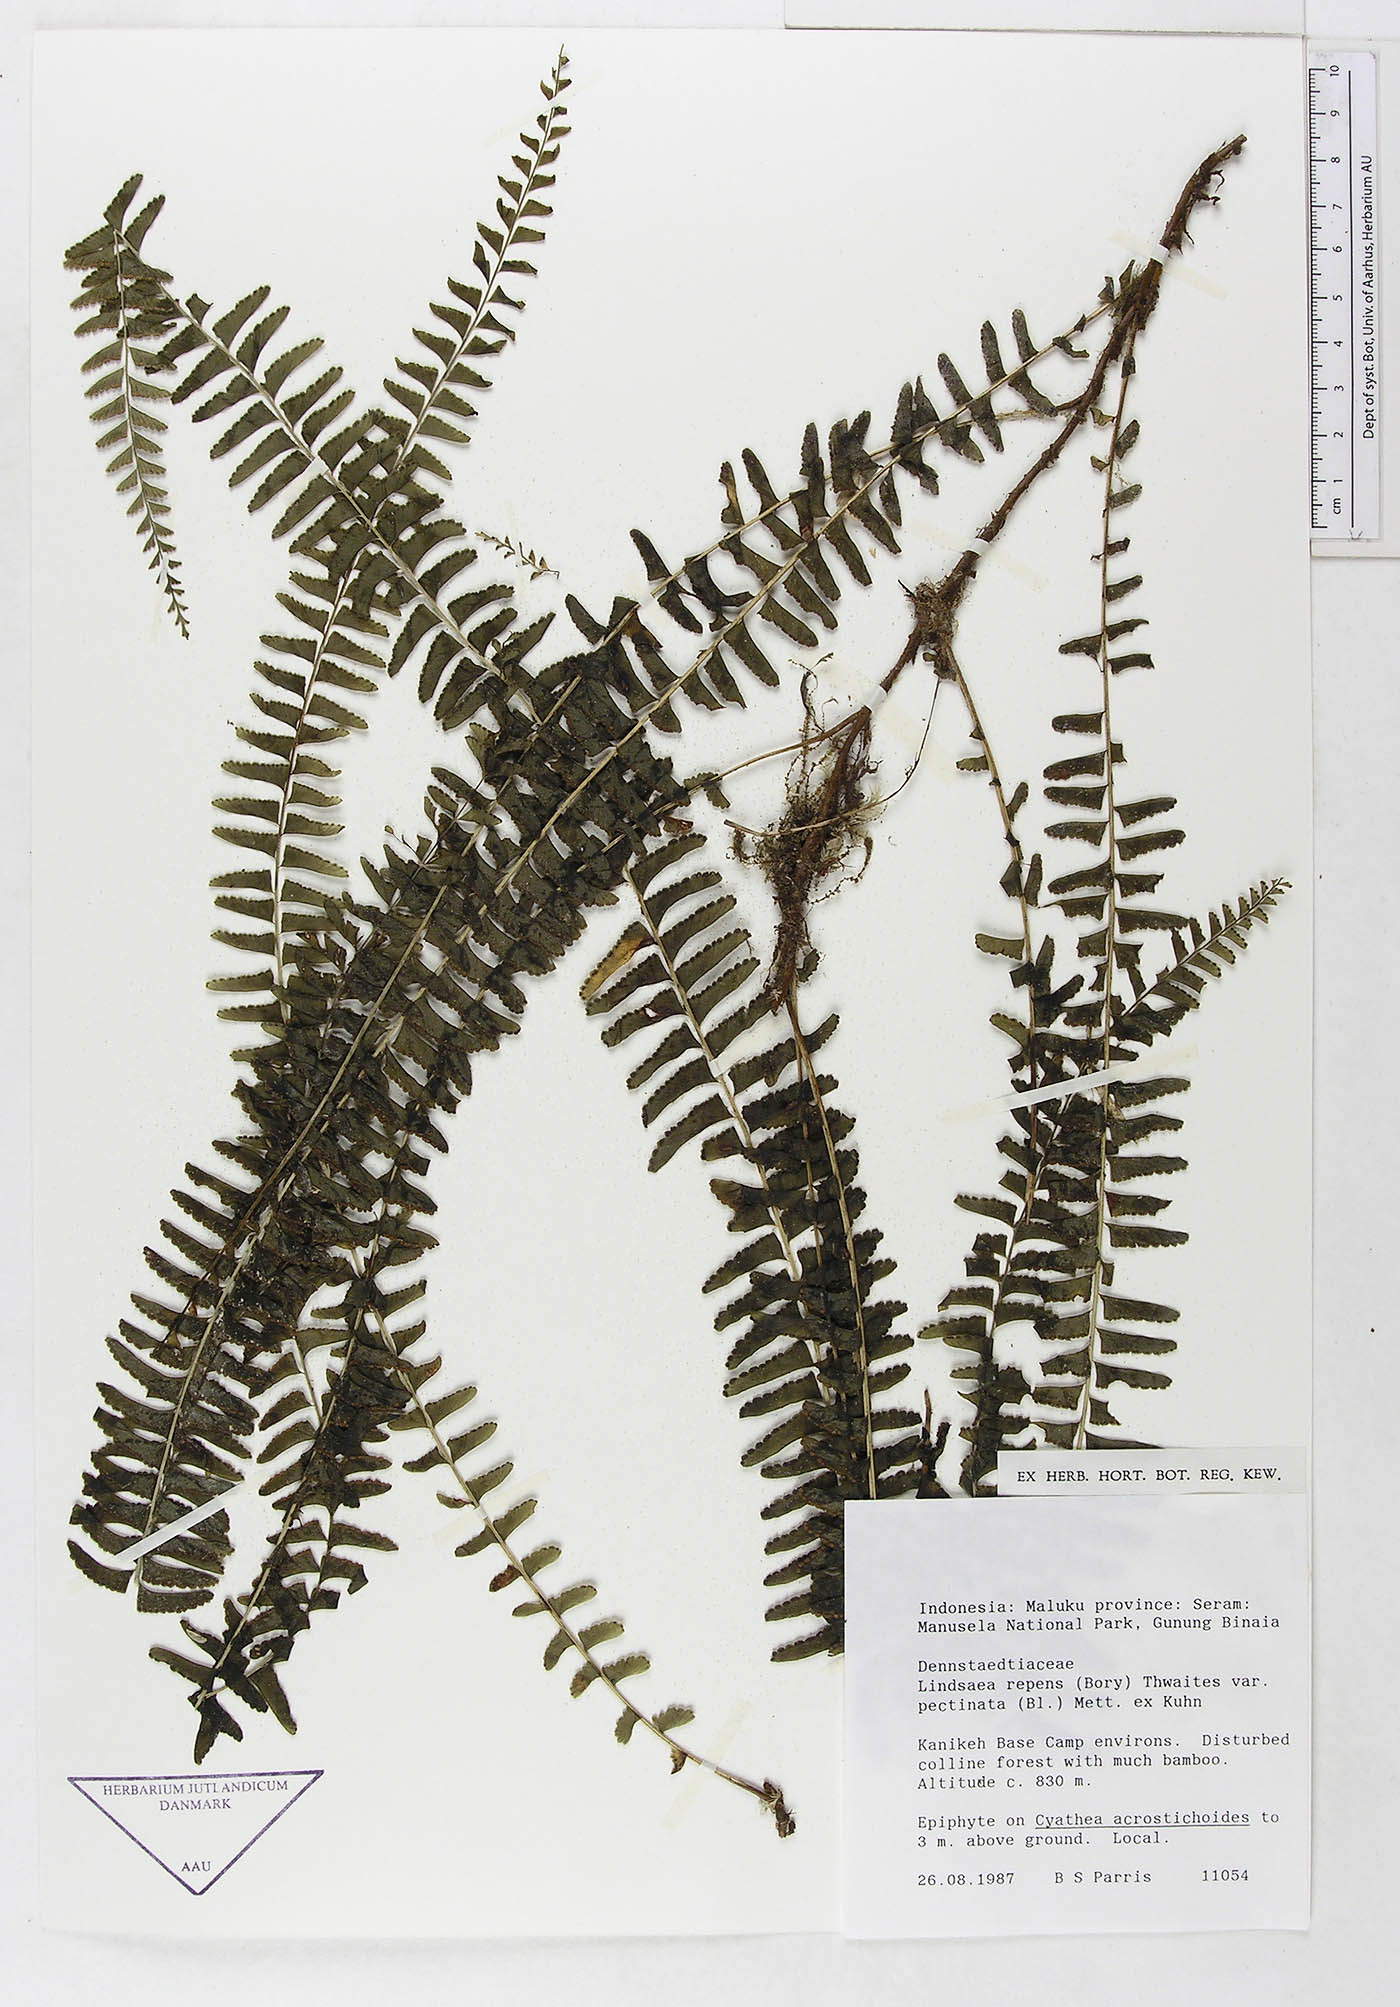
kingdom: Plantae
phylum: Tracheophyta
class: Polypodiopsida
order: Polypodiales
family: Lindsaeaceae
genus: Lindsaea
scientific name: Lindsaea capillacea
